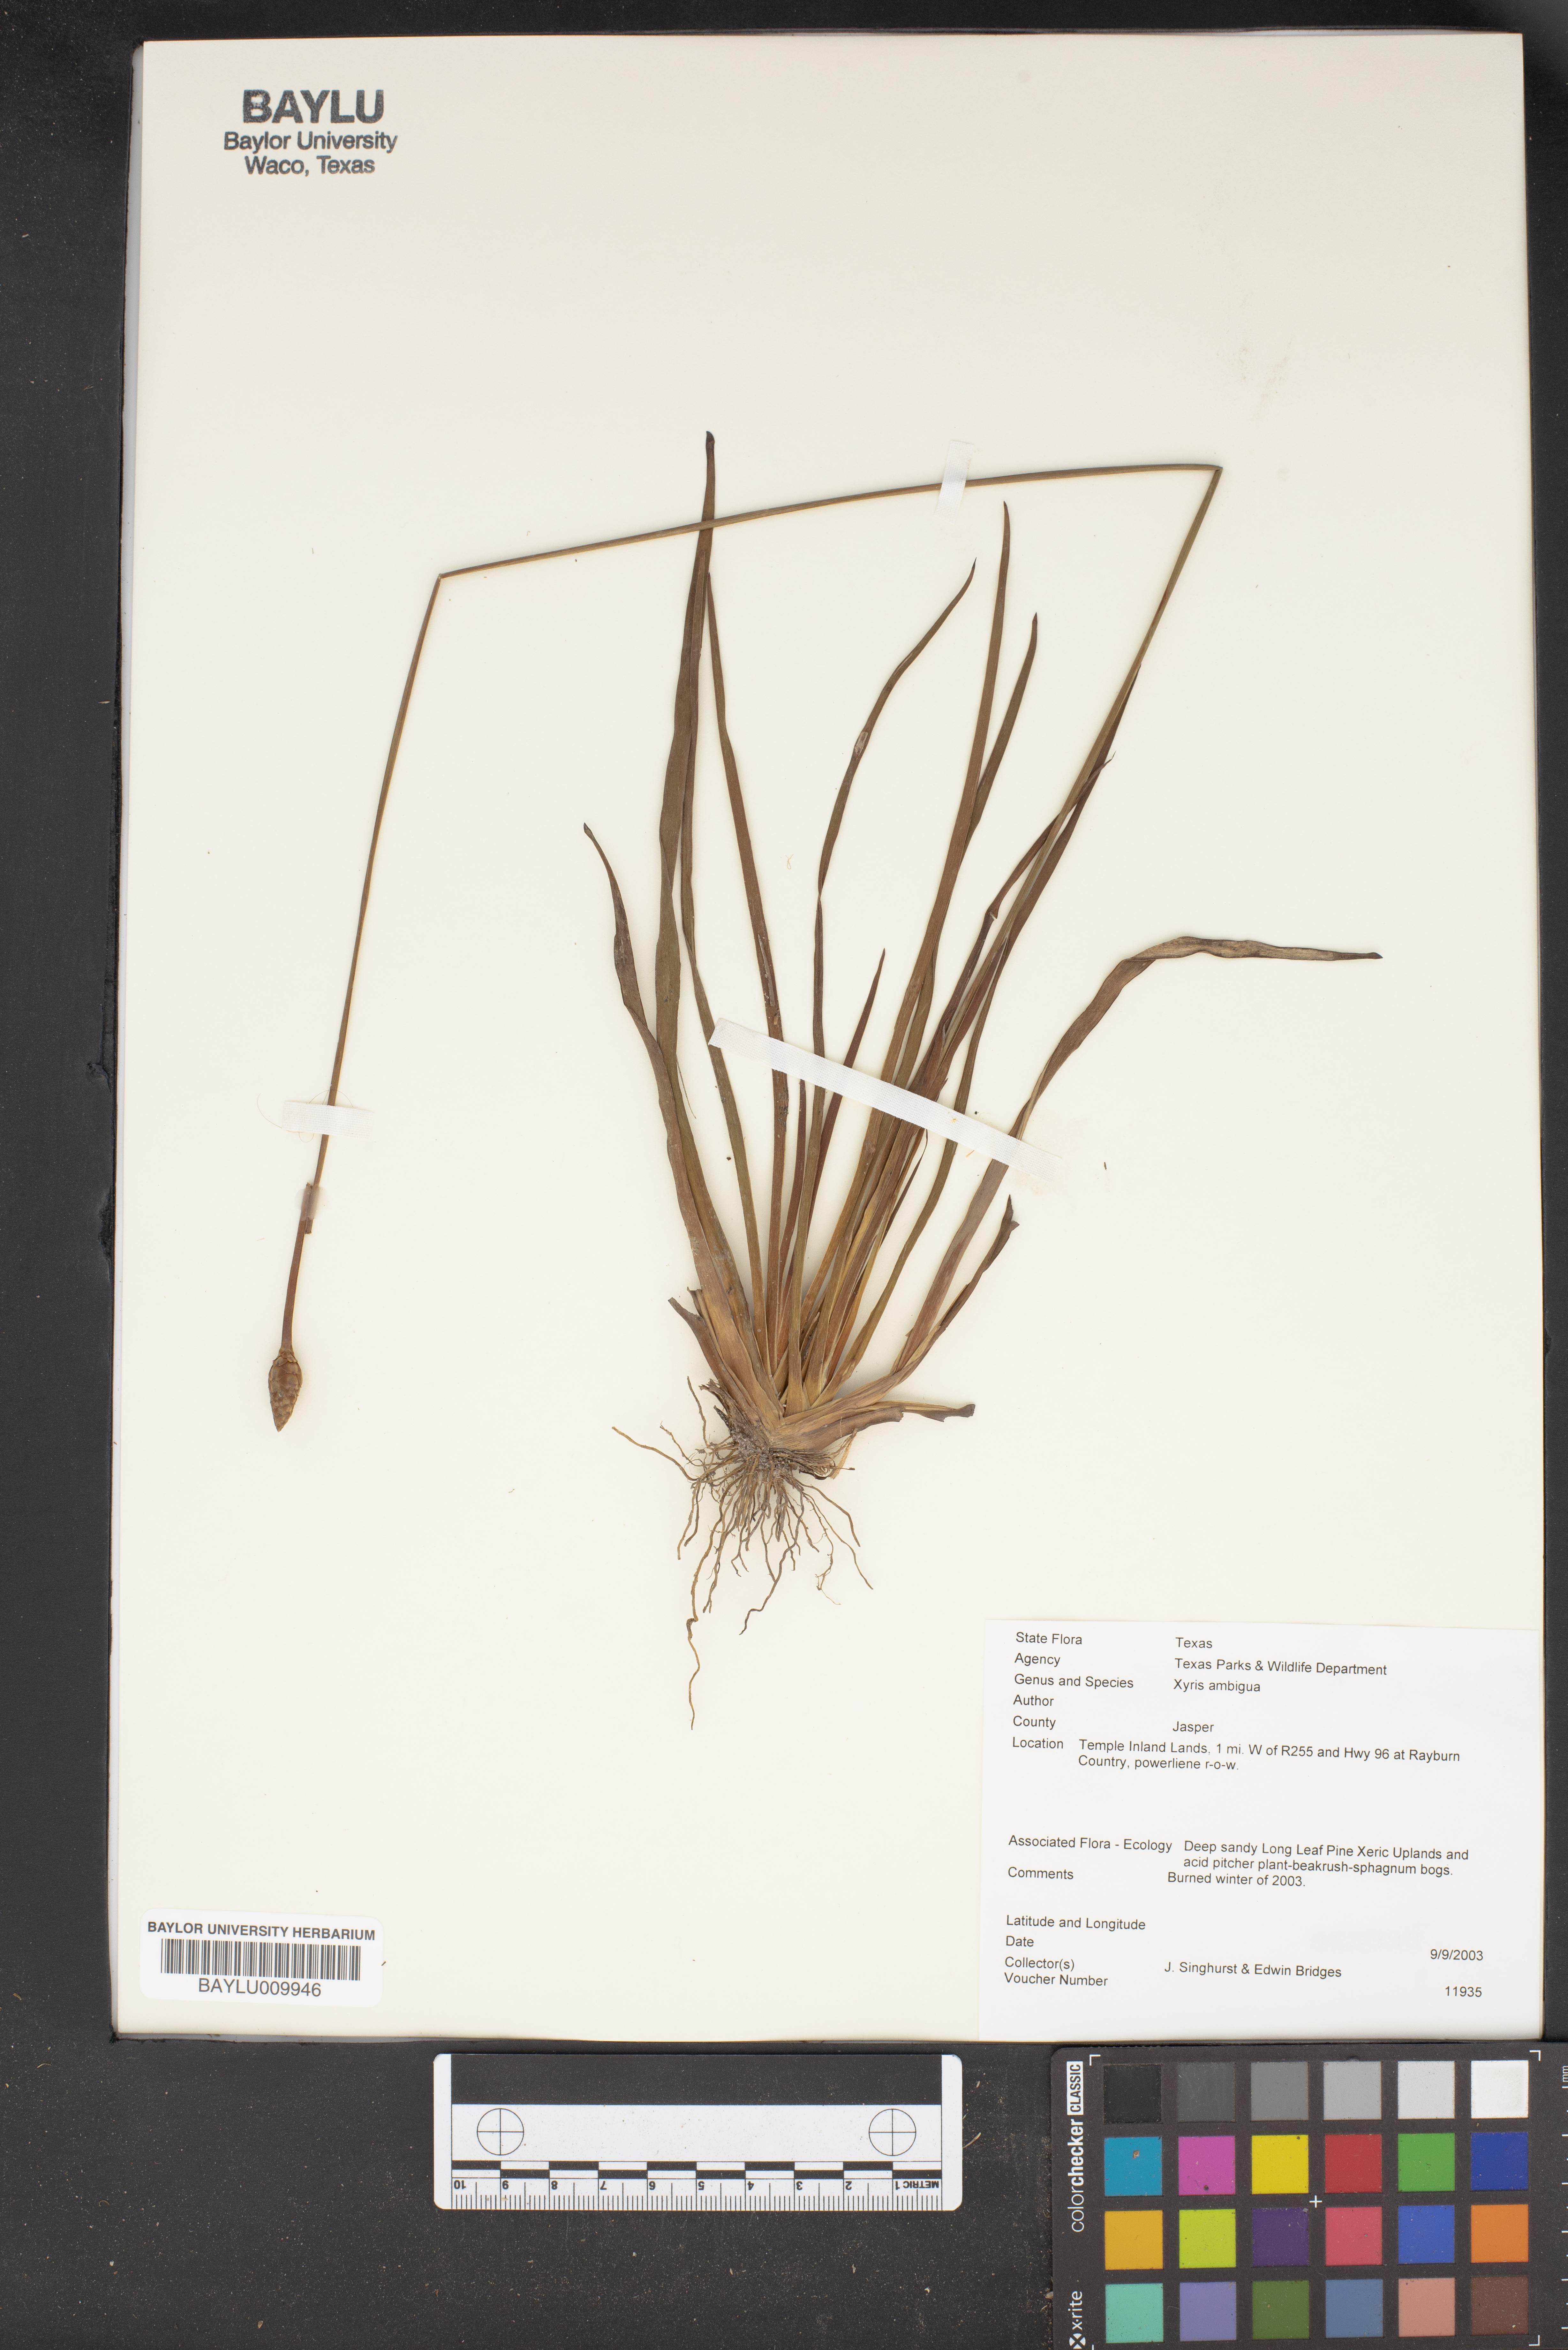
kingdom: Plantae
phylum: Tracheophyta
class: Liliopsida
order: Poales
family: Xyridaceae
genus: Xyris
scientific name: Xyris ambigua
